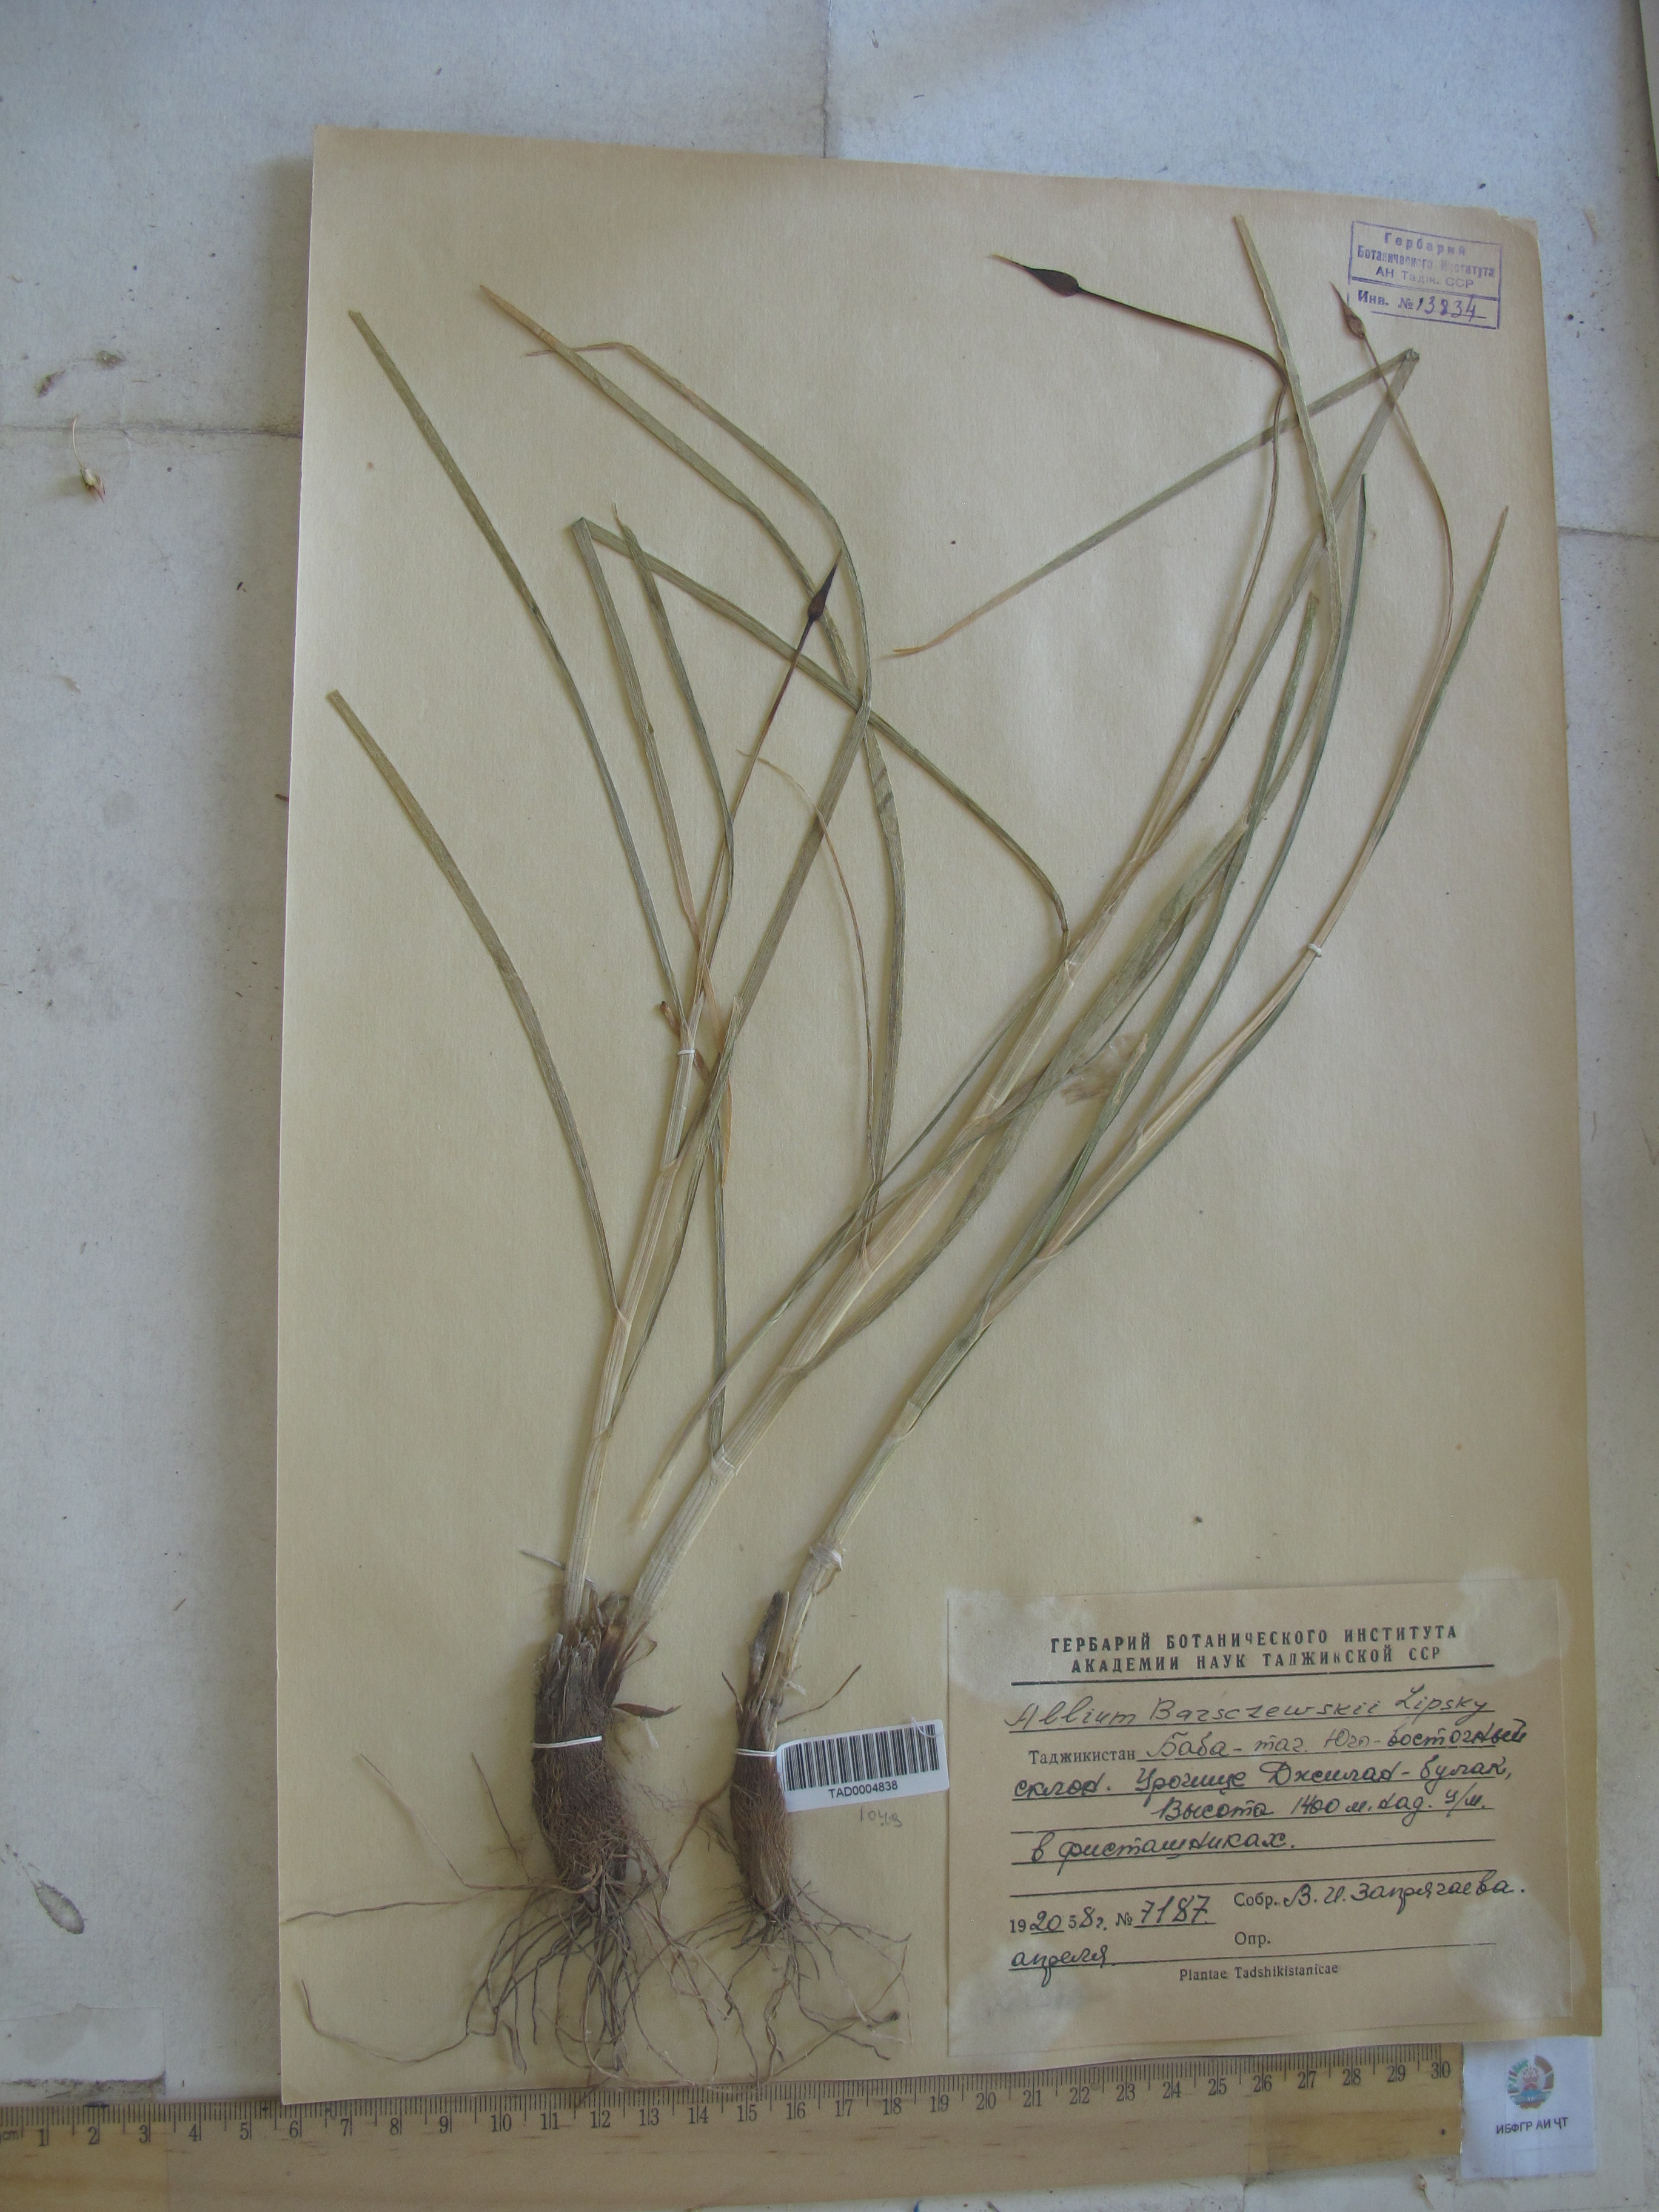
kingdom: Plantae
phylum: Tracheophyta
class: Liliopsida
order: Asparagales
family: Amaryllidaceae
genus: Allium
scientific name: Allium barsczewskii
